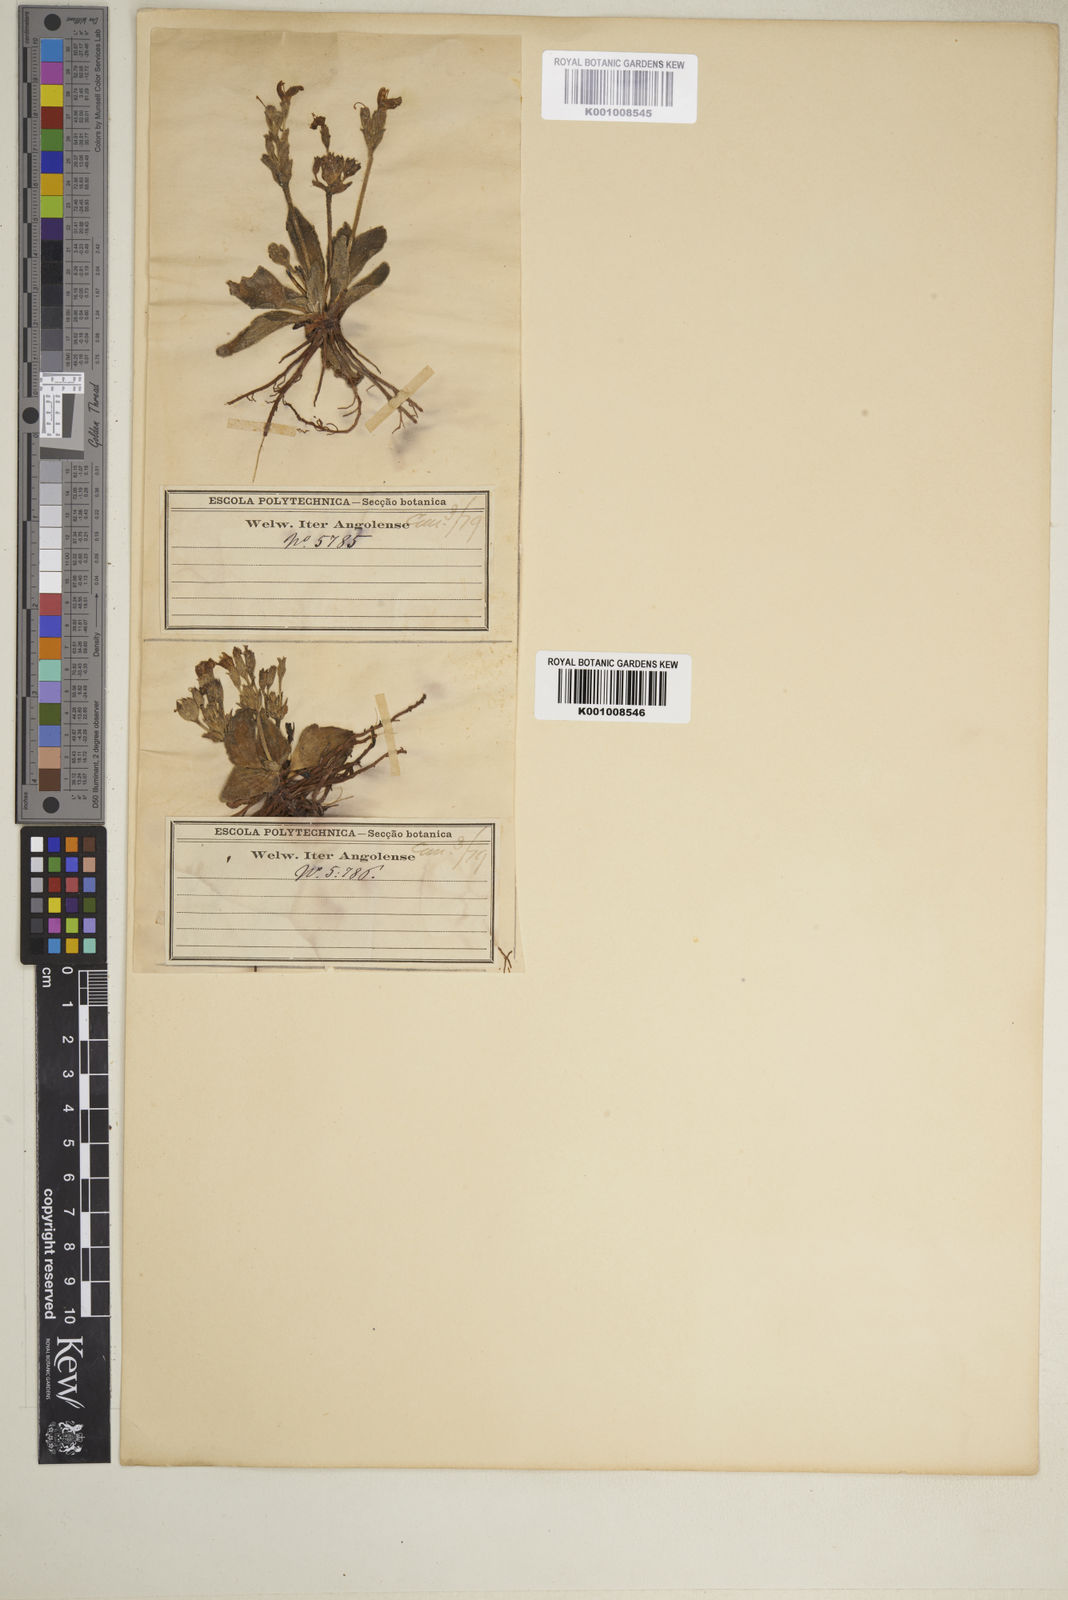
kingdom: Plantae
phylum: Tracheophyta
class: Magnoliopsida
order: Lamiales
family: Linderniaceae
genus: Craterostigma
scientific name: Craterostigma plantagineum
